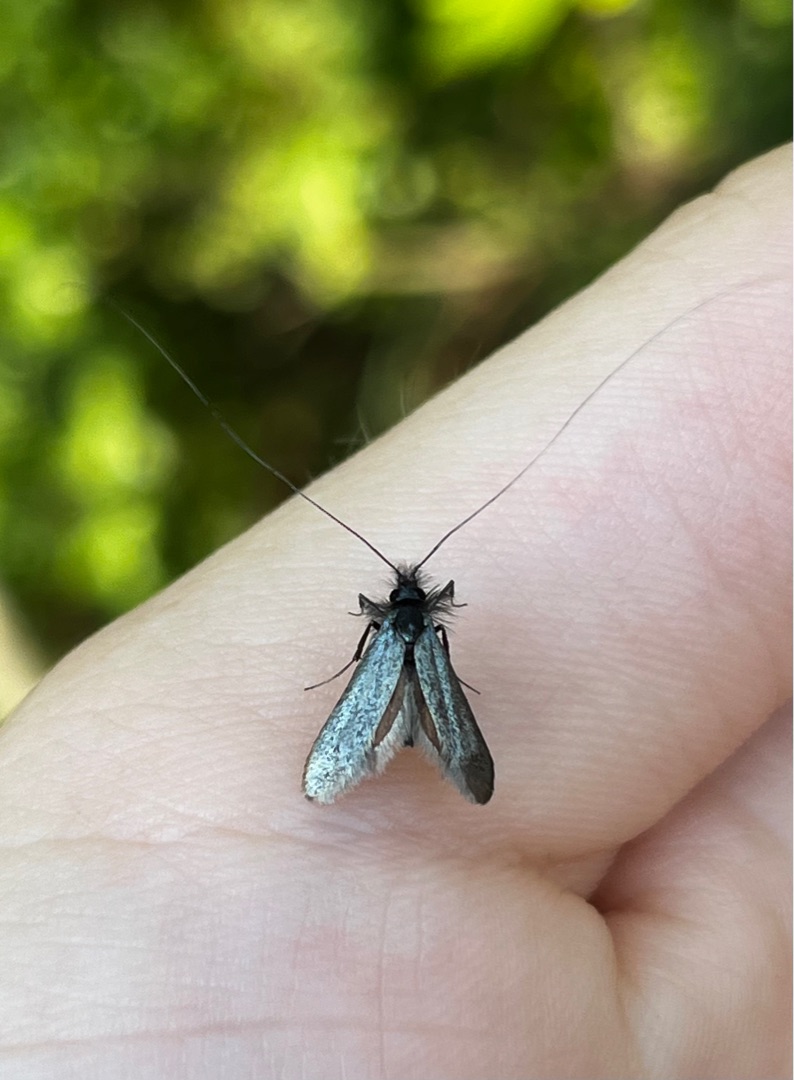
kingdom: Animalia
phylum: Arthropoda
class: Insecta
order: Lepidoptera
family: Adelidae
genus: Adela
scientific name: Adela viridella
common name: Egelanghornsmøl
